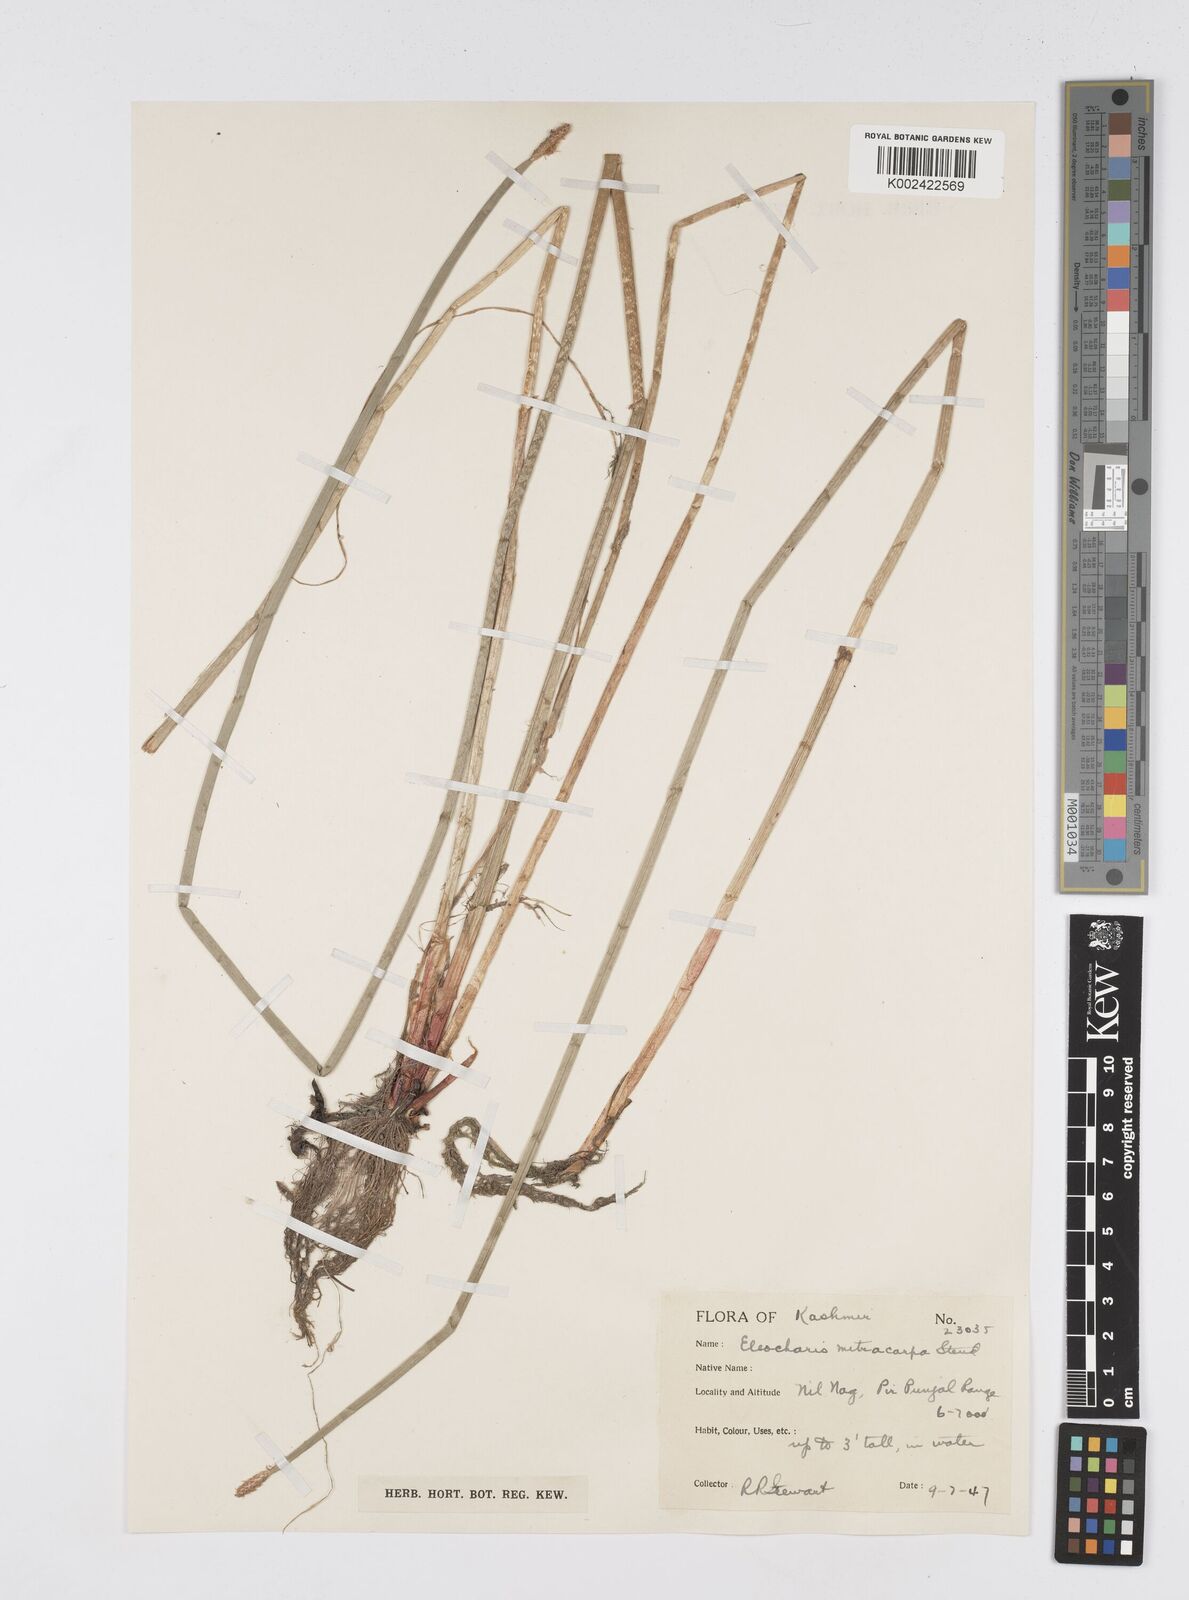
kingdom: Plantae
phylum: Tracheophyta
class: Liliopsida
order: Poales
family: Cyperaceae
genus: Eleocharis
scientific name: Eleocharis mitracarpa
